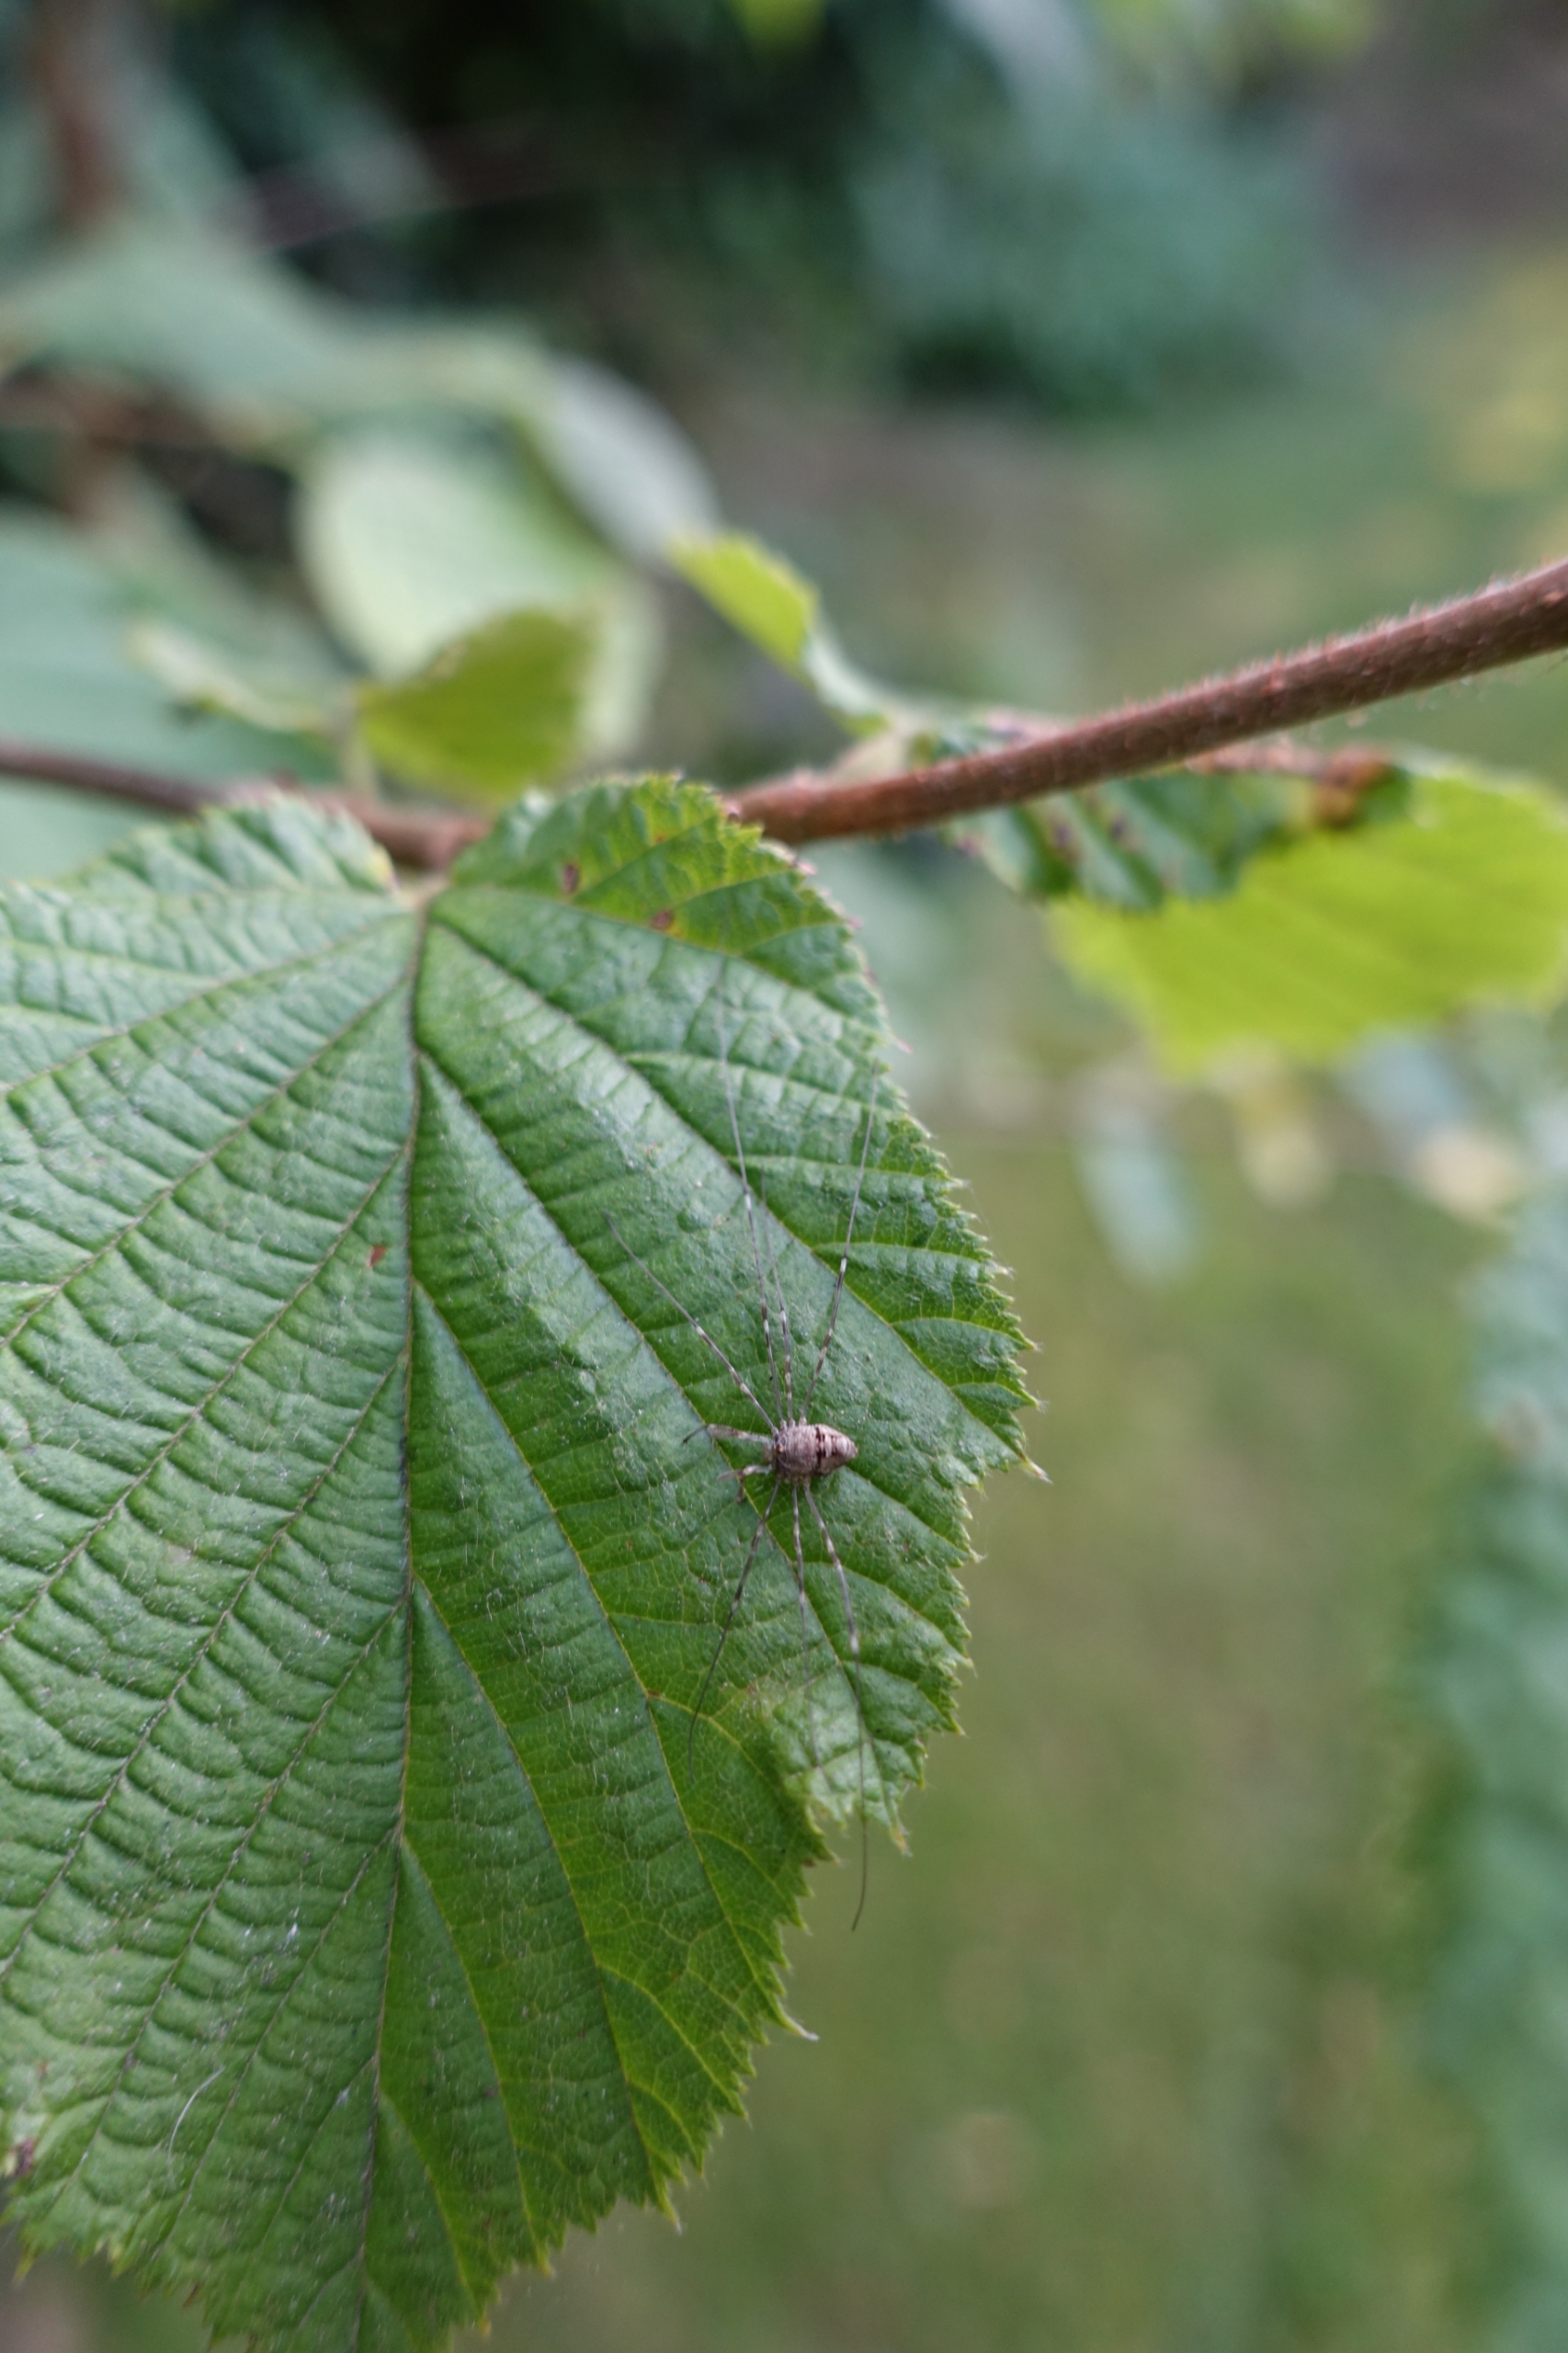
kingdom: Animalia
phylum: Arthropoda
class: Arachnida
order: Opiliones
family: Phalangiidae
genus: Dicranopalpus
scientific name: Dicranopalpus ramosus
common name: Gaffelmejer
